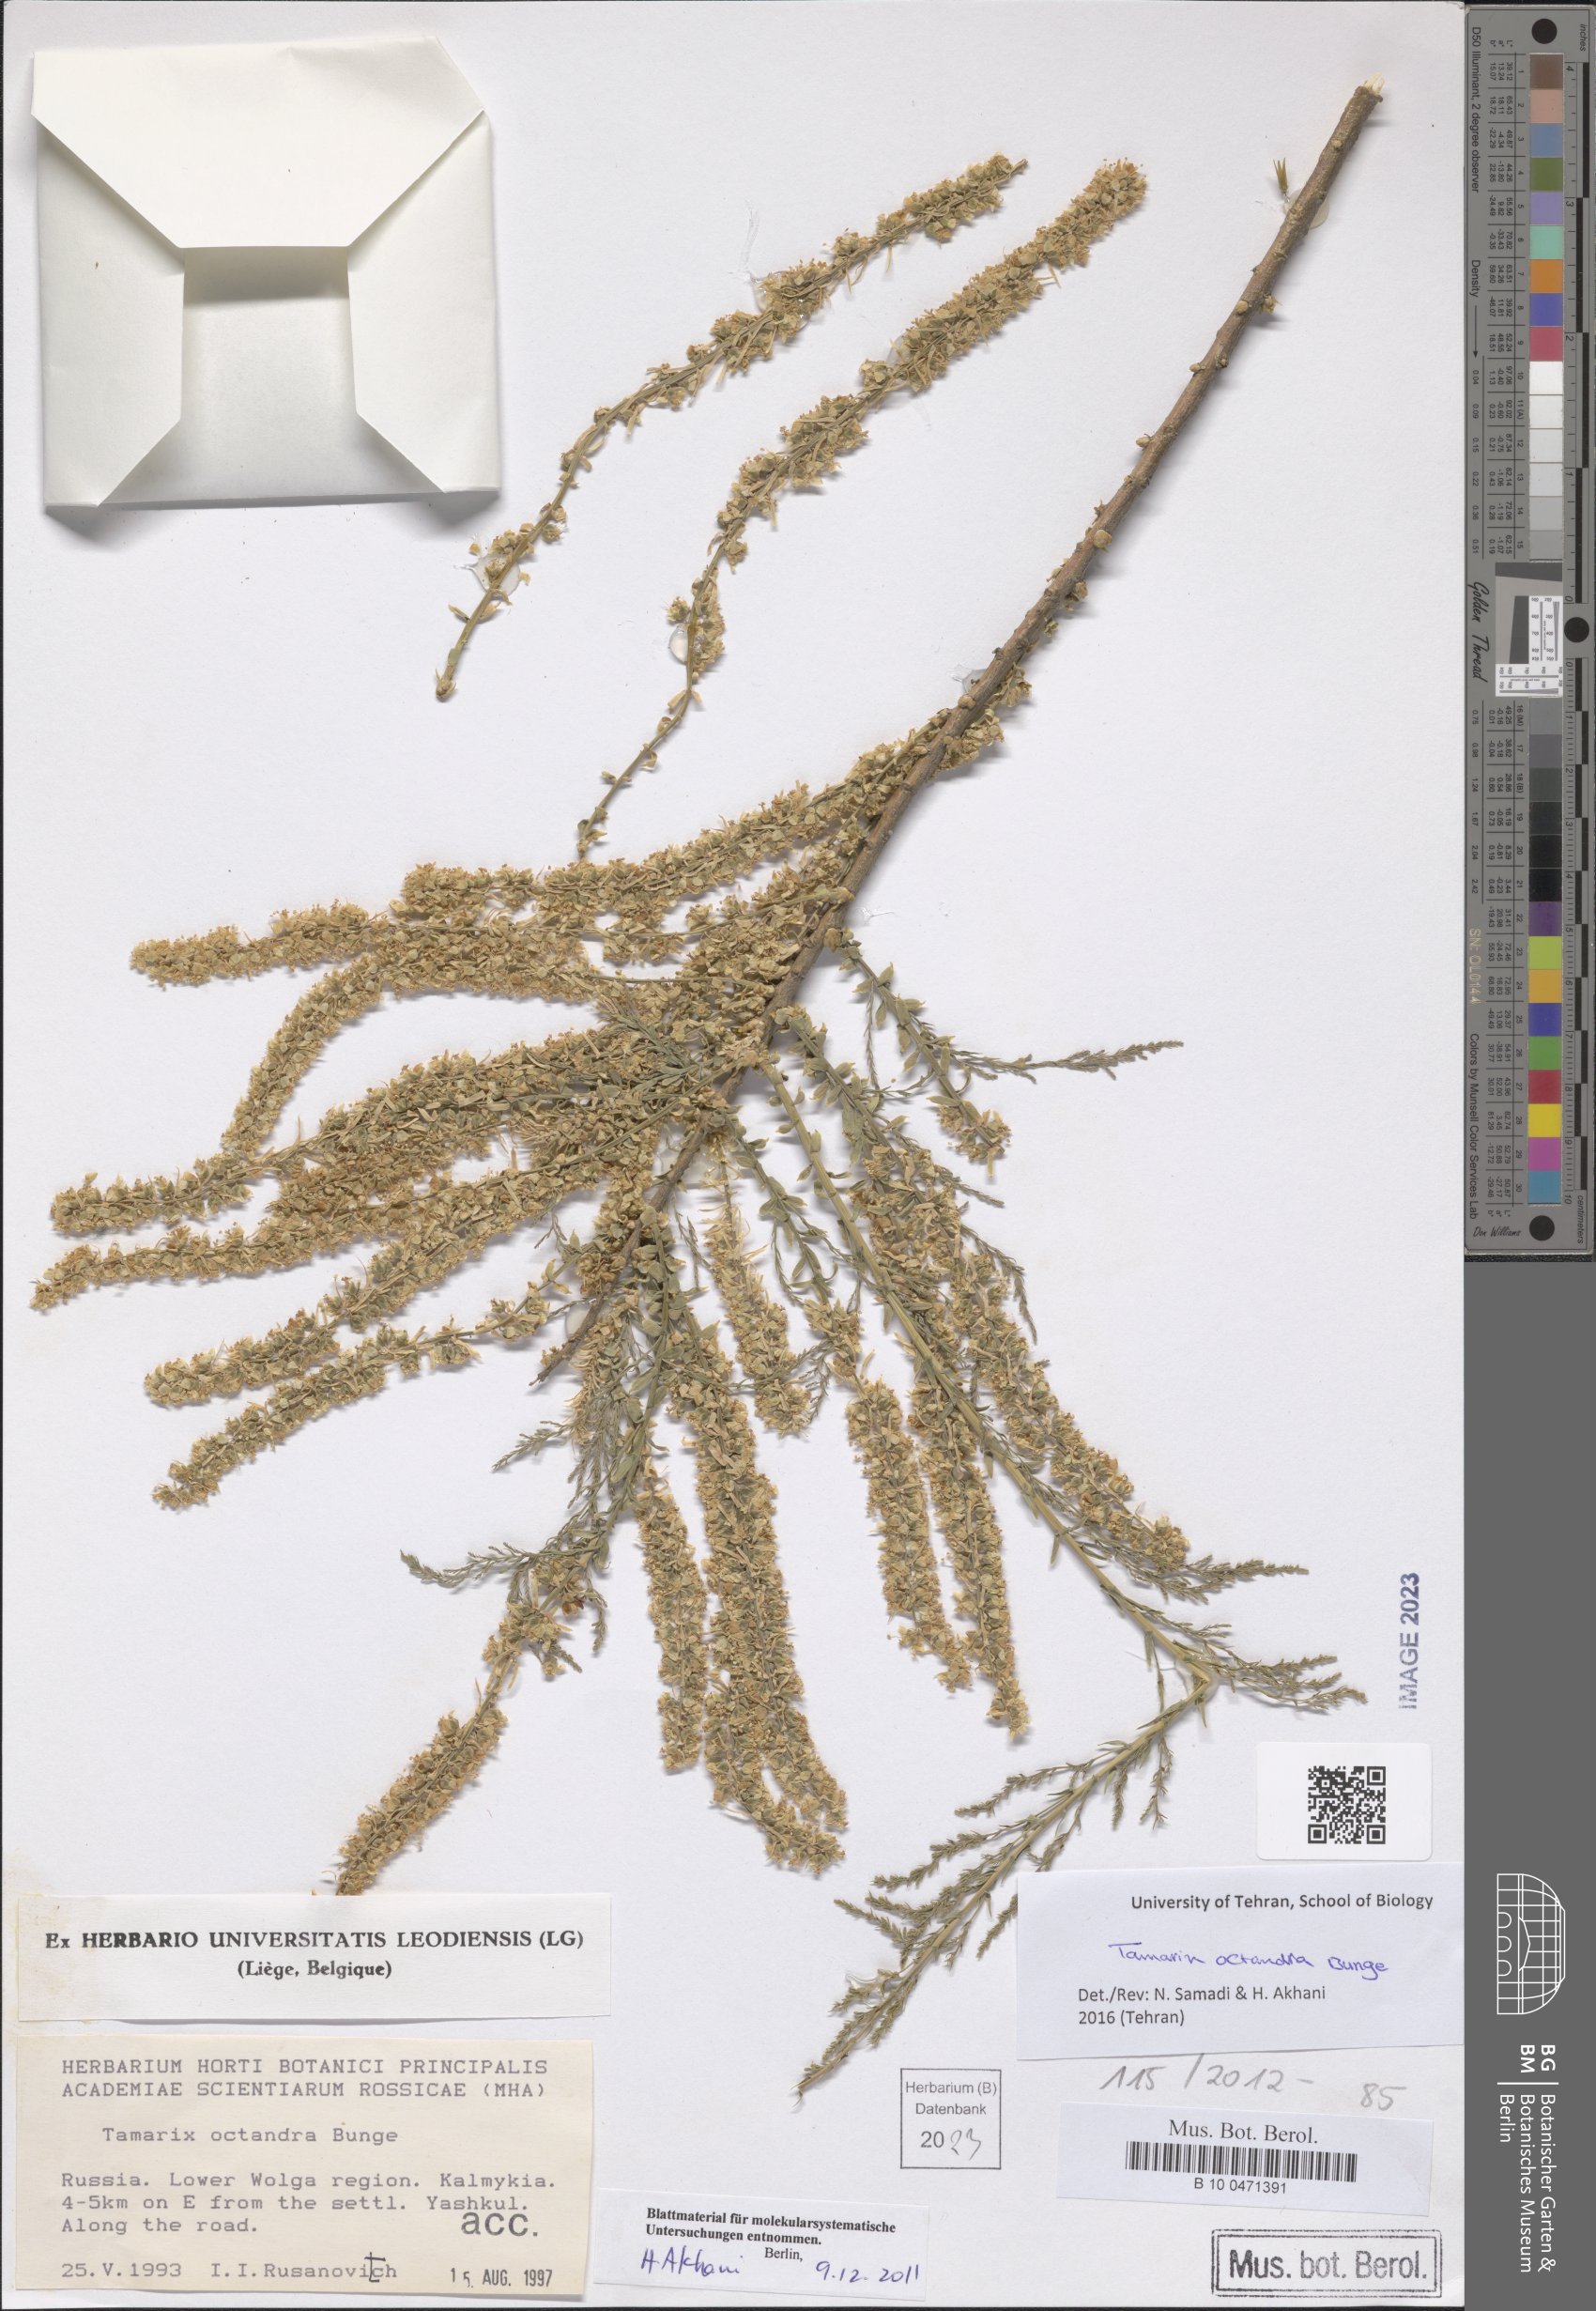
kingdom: Plantae
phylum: Tracheophyta
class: Magnoliopsida
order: Caryophyllales
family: Tamaricaceae
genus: Tamarix
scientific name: Tamarix octandra
